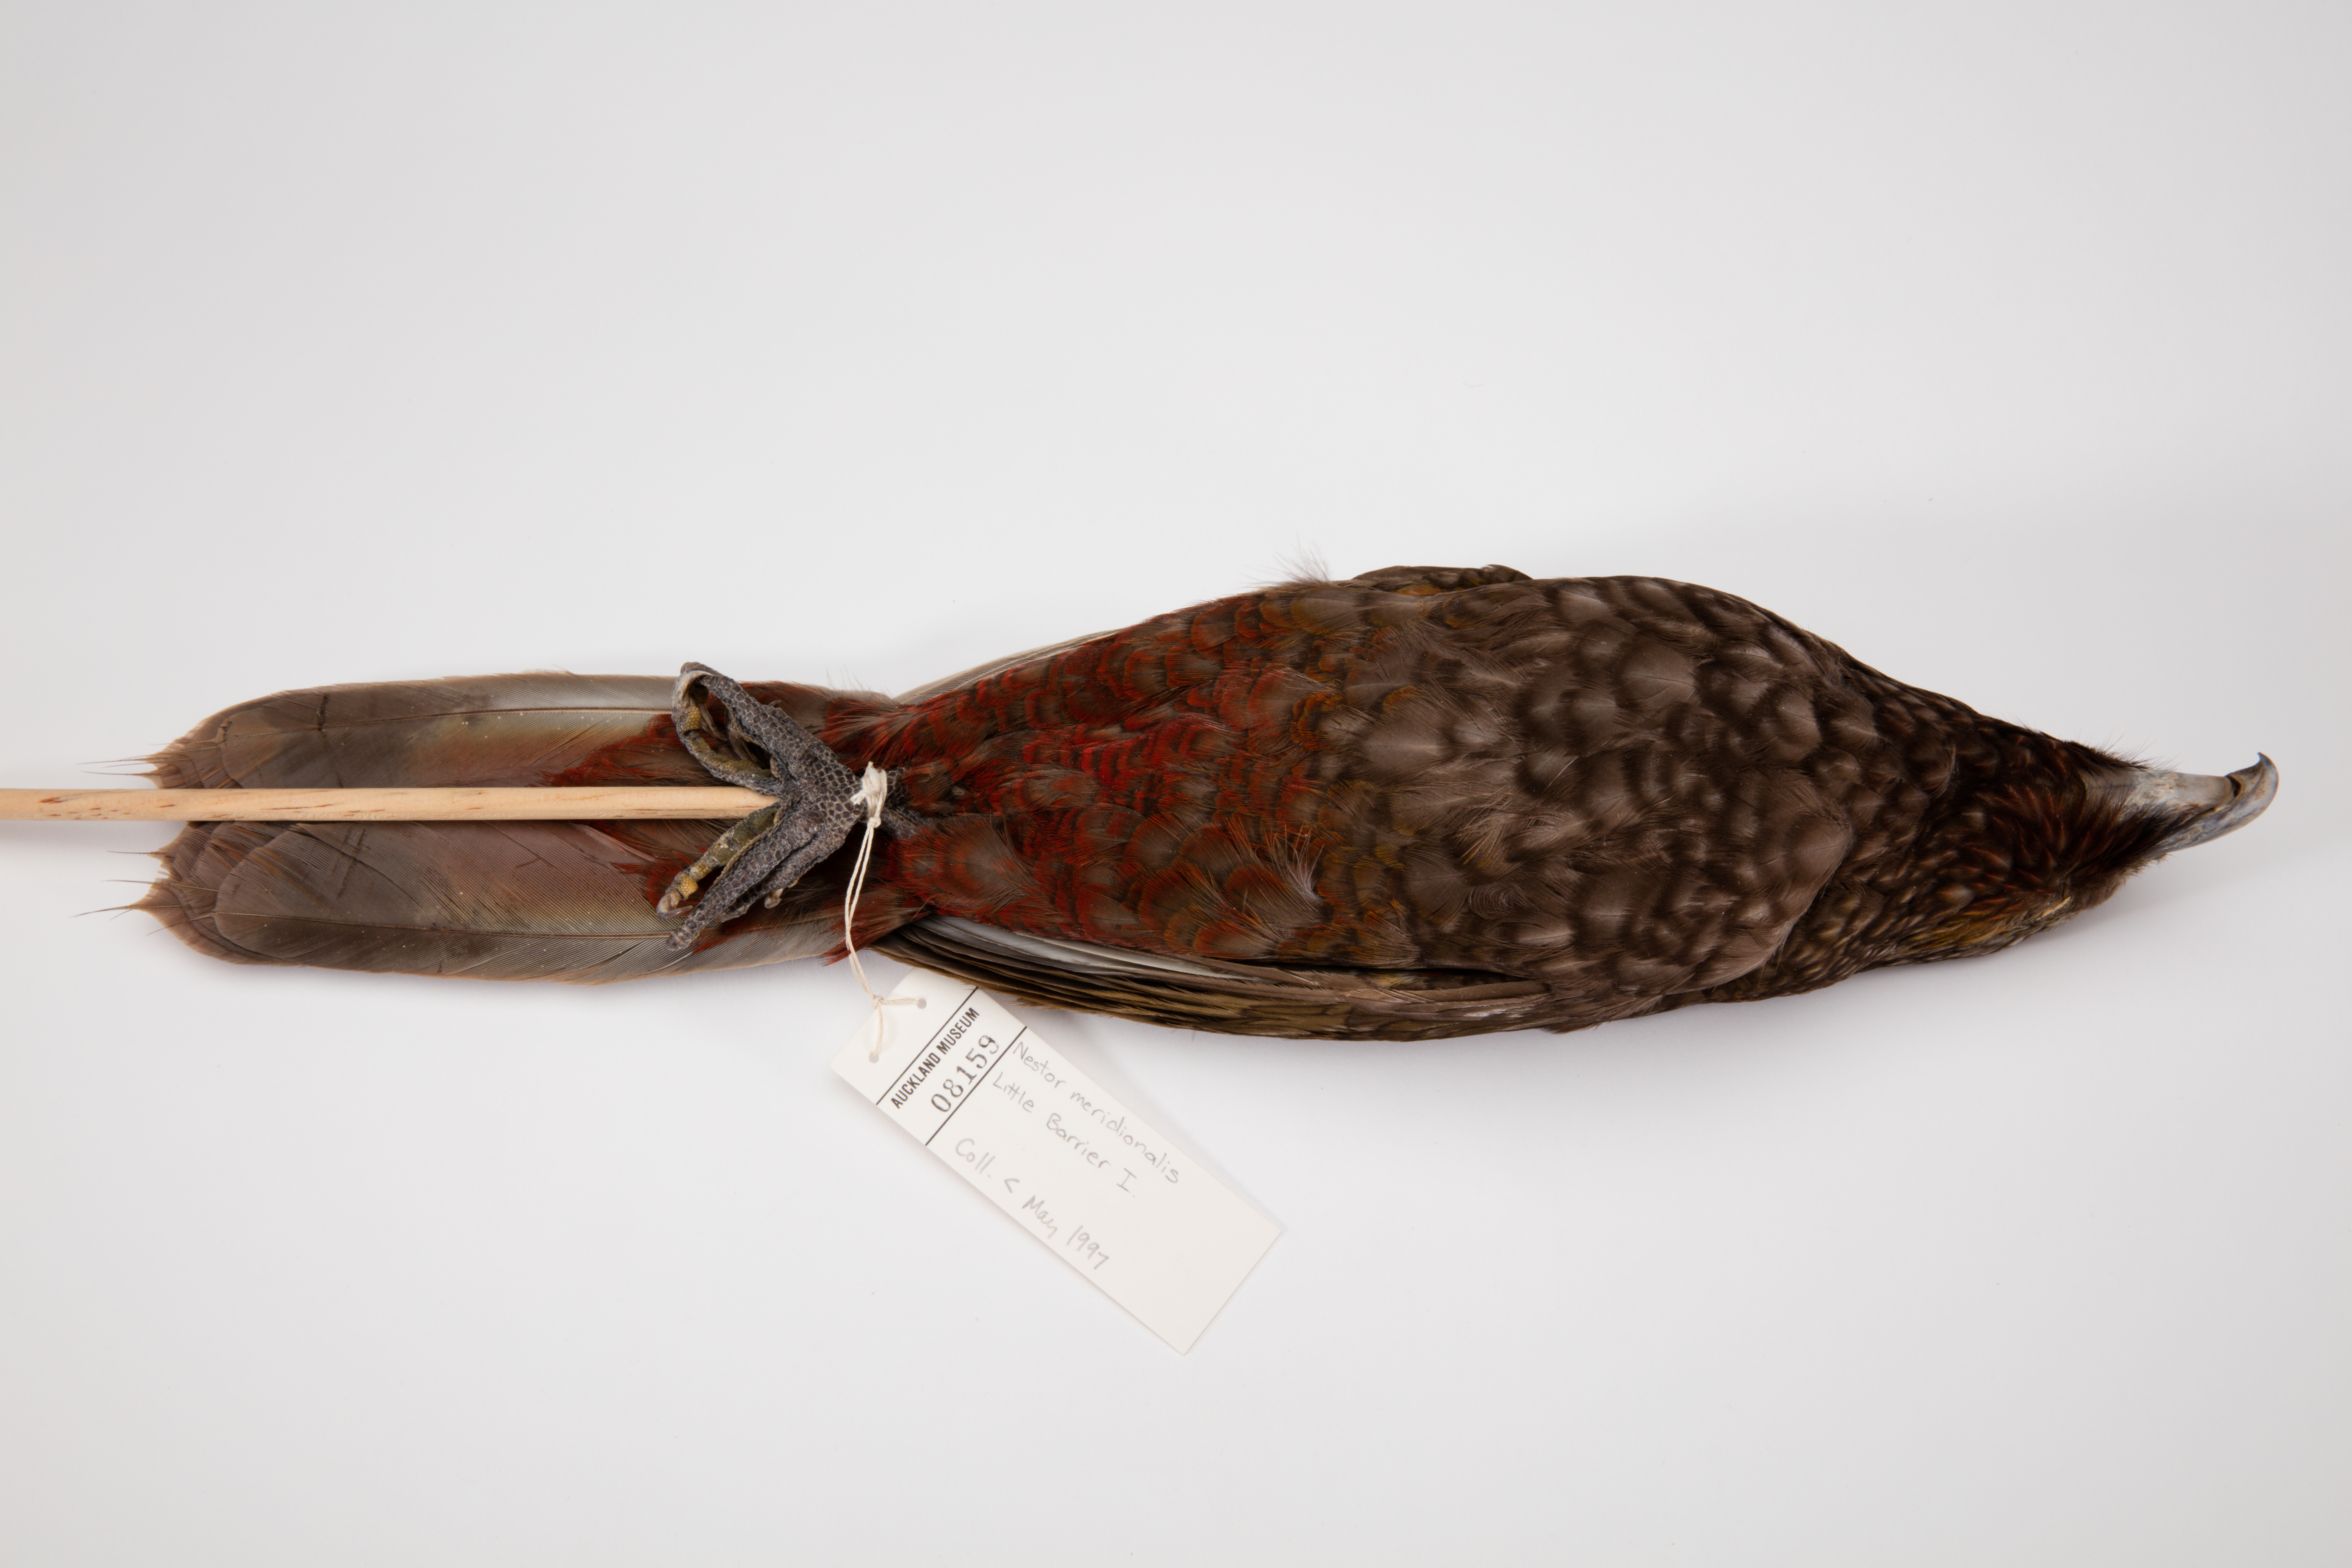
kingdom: Animalia
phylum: Chordata
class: Aves
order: Psittaciformes
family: Psittacidae
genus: Nestor
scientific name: Nestor meridionalis
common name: New zealand kaka
